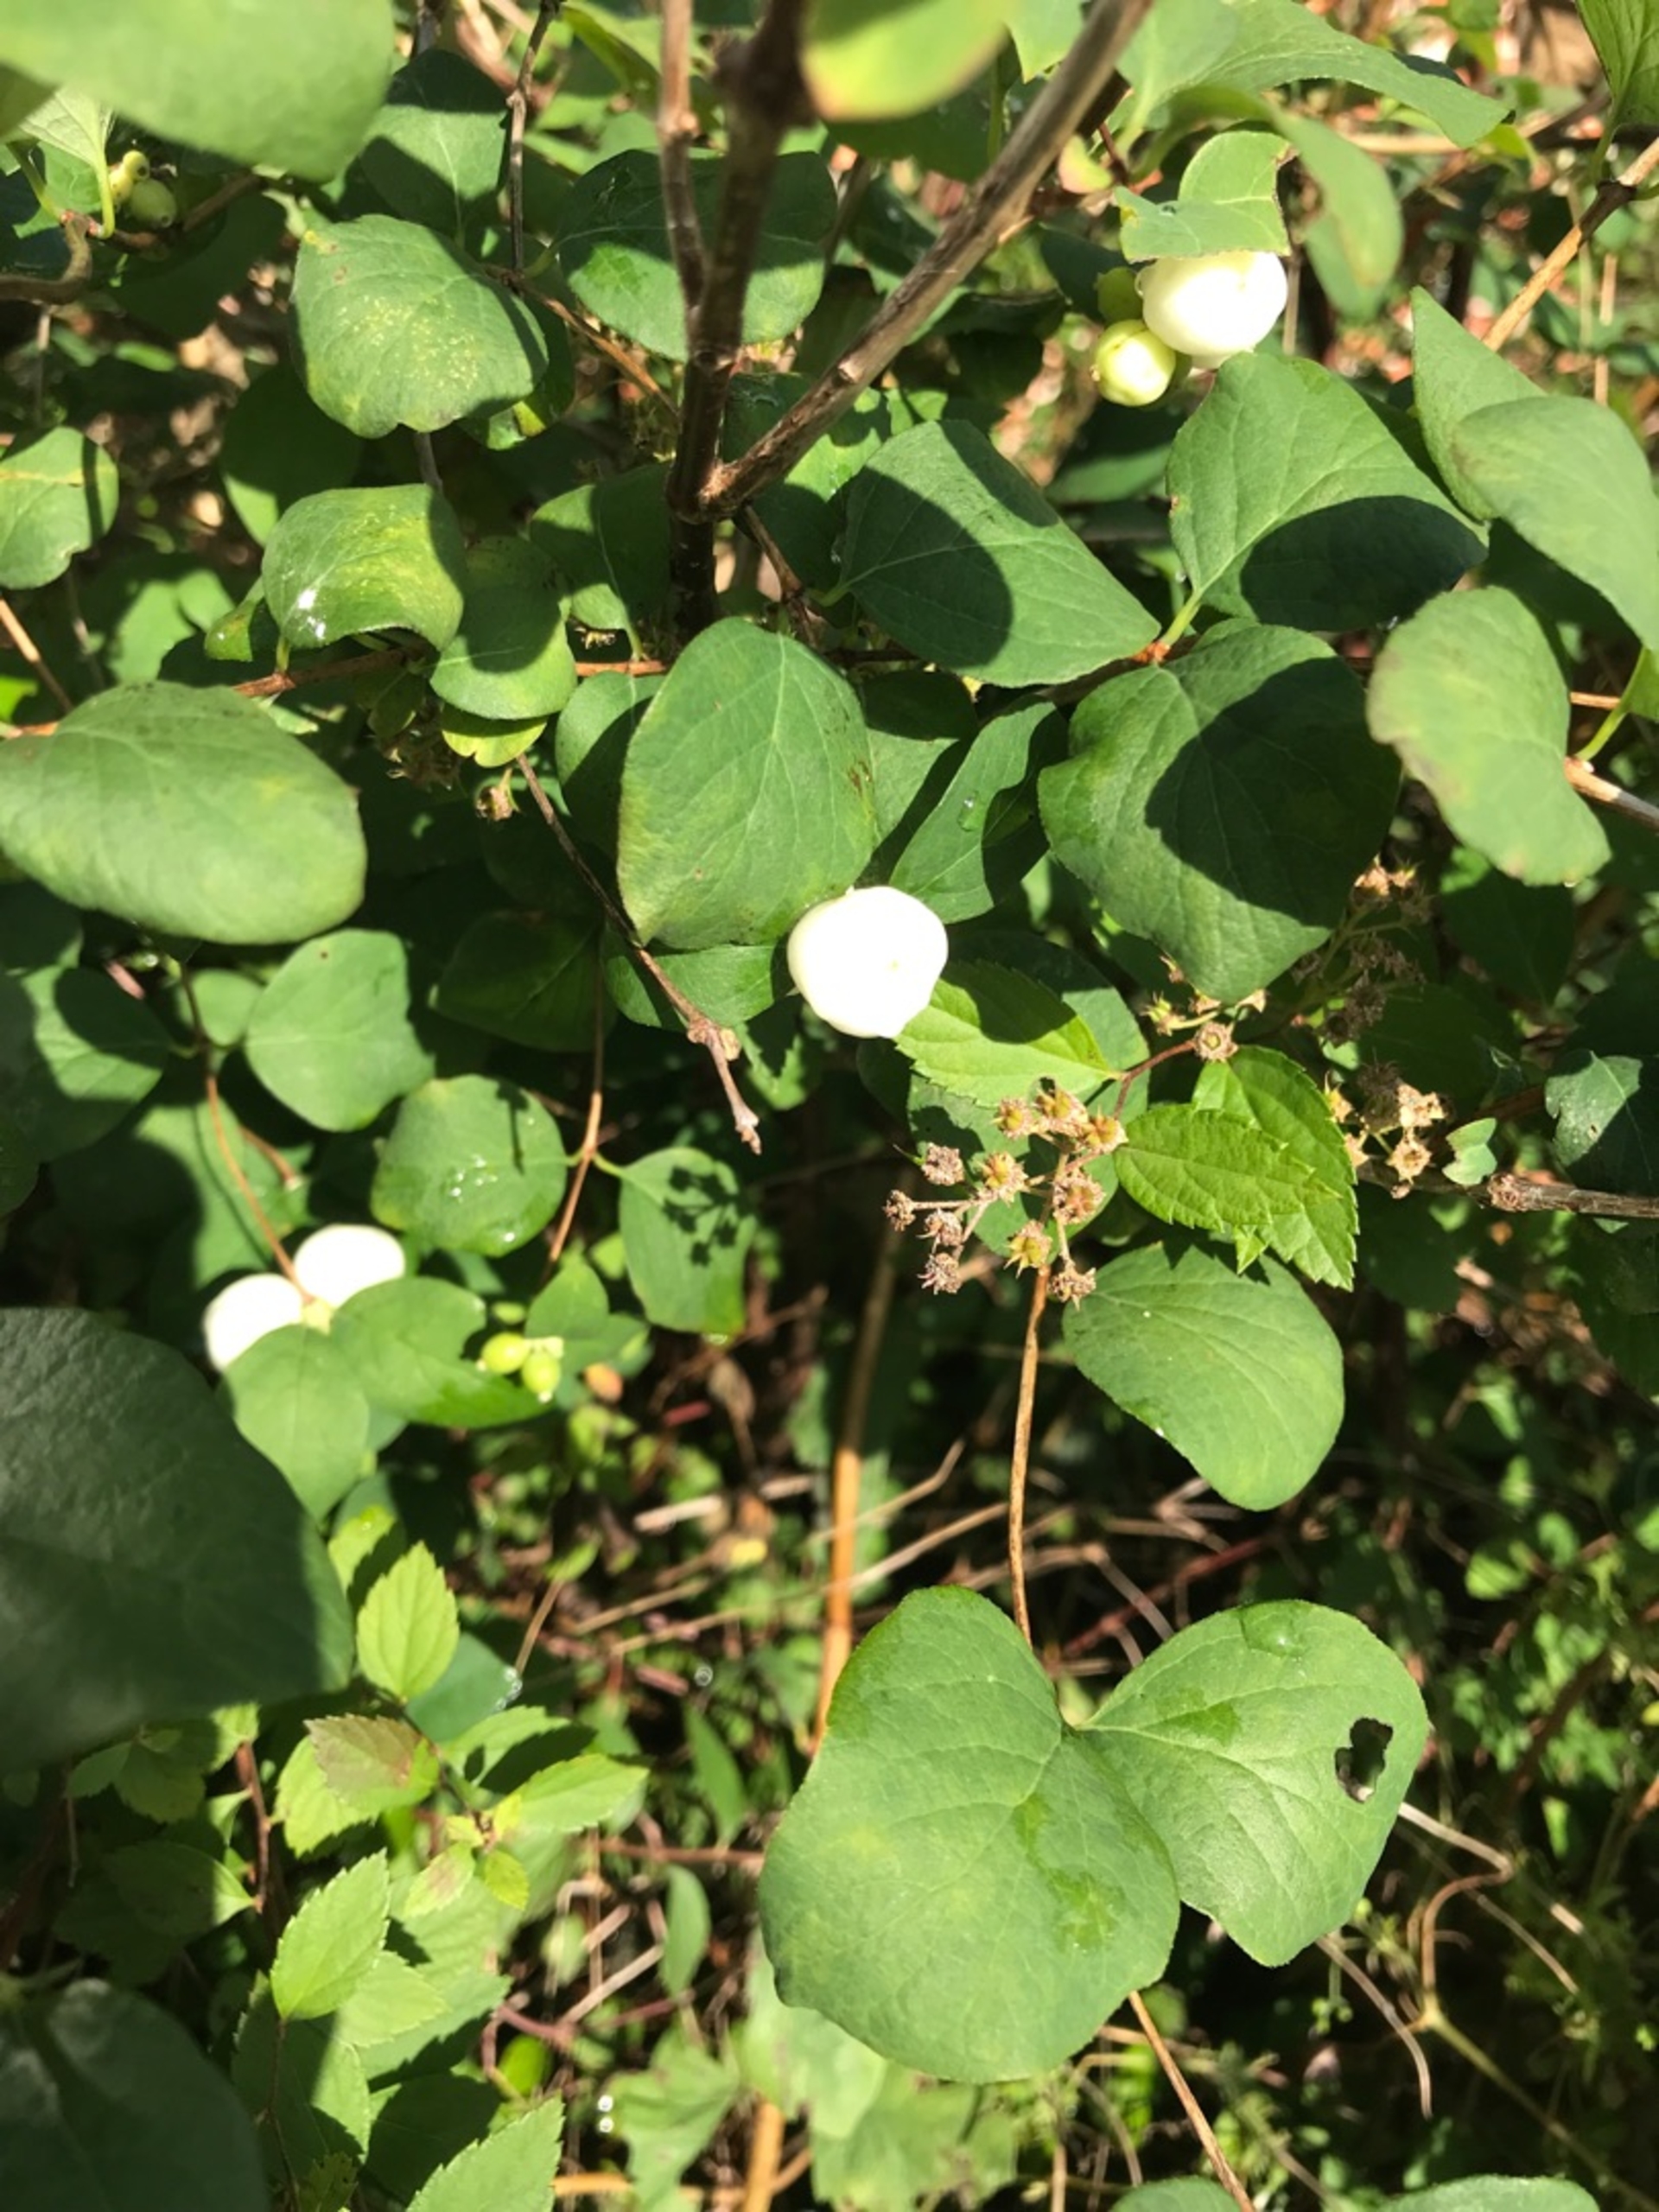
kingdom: Plantae
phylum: Tracheophyta
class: Magnoliopsida
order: Dipsacales
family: Caprifoliaceae
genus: Symphoricarpos
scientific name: Symphoricarpos albus
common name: Almindelig snebær
